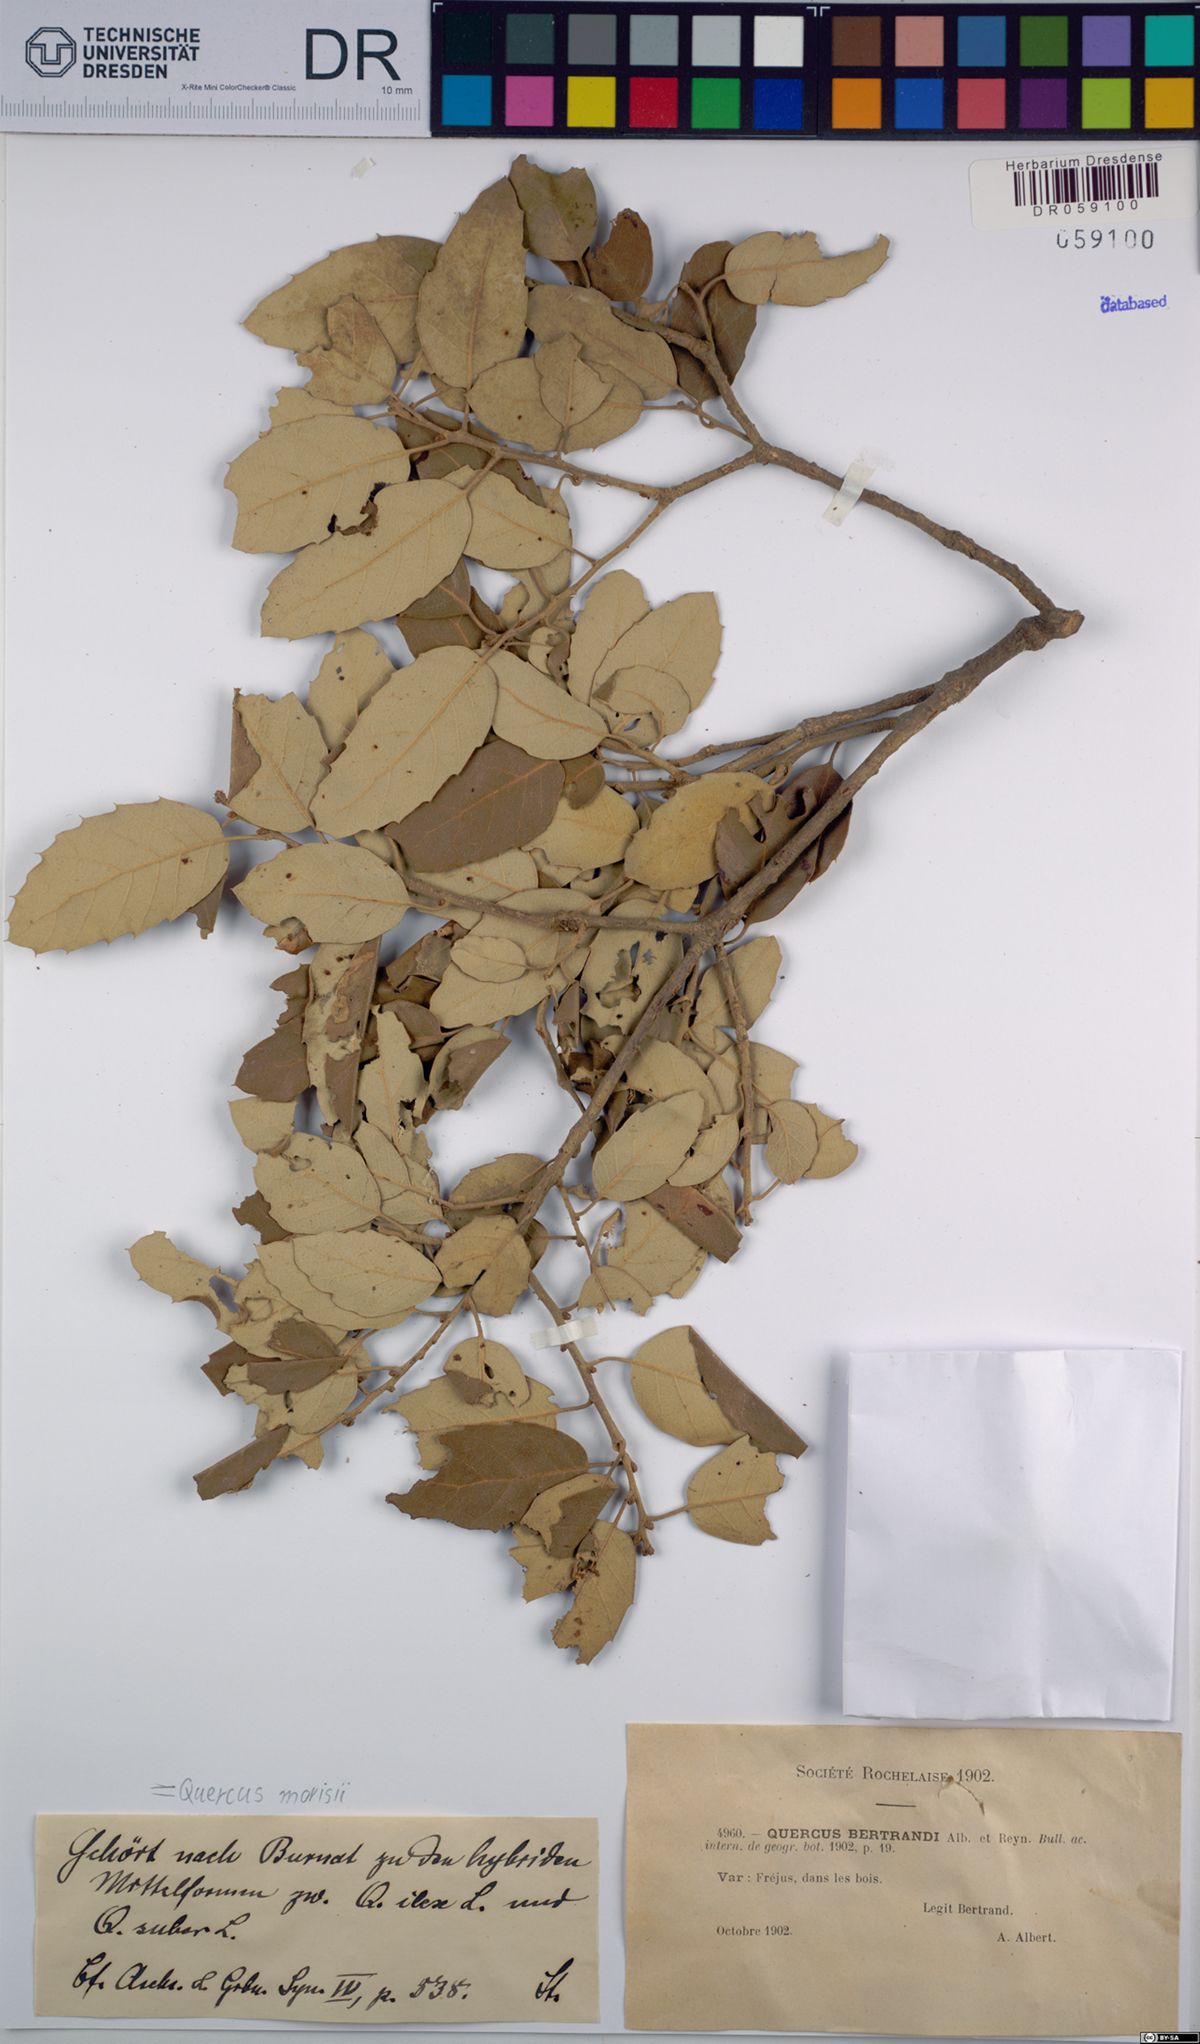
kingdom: Plantae
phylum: Tracheophyta
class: Magnoliopsida
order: Fagales
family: Fagaceae
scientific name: Fagaceae
